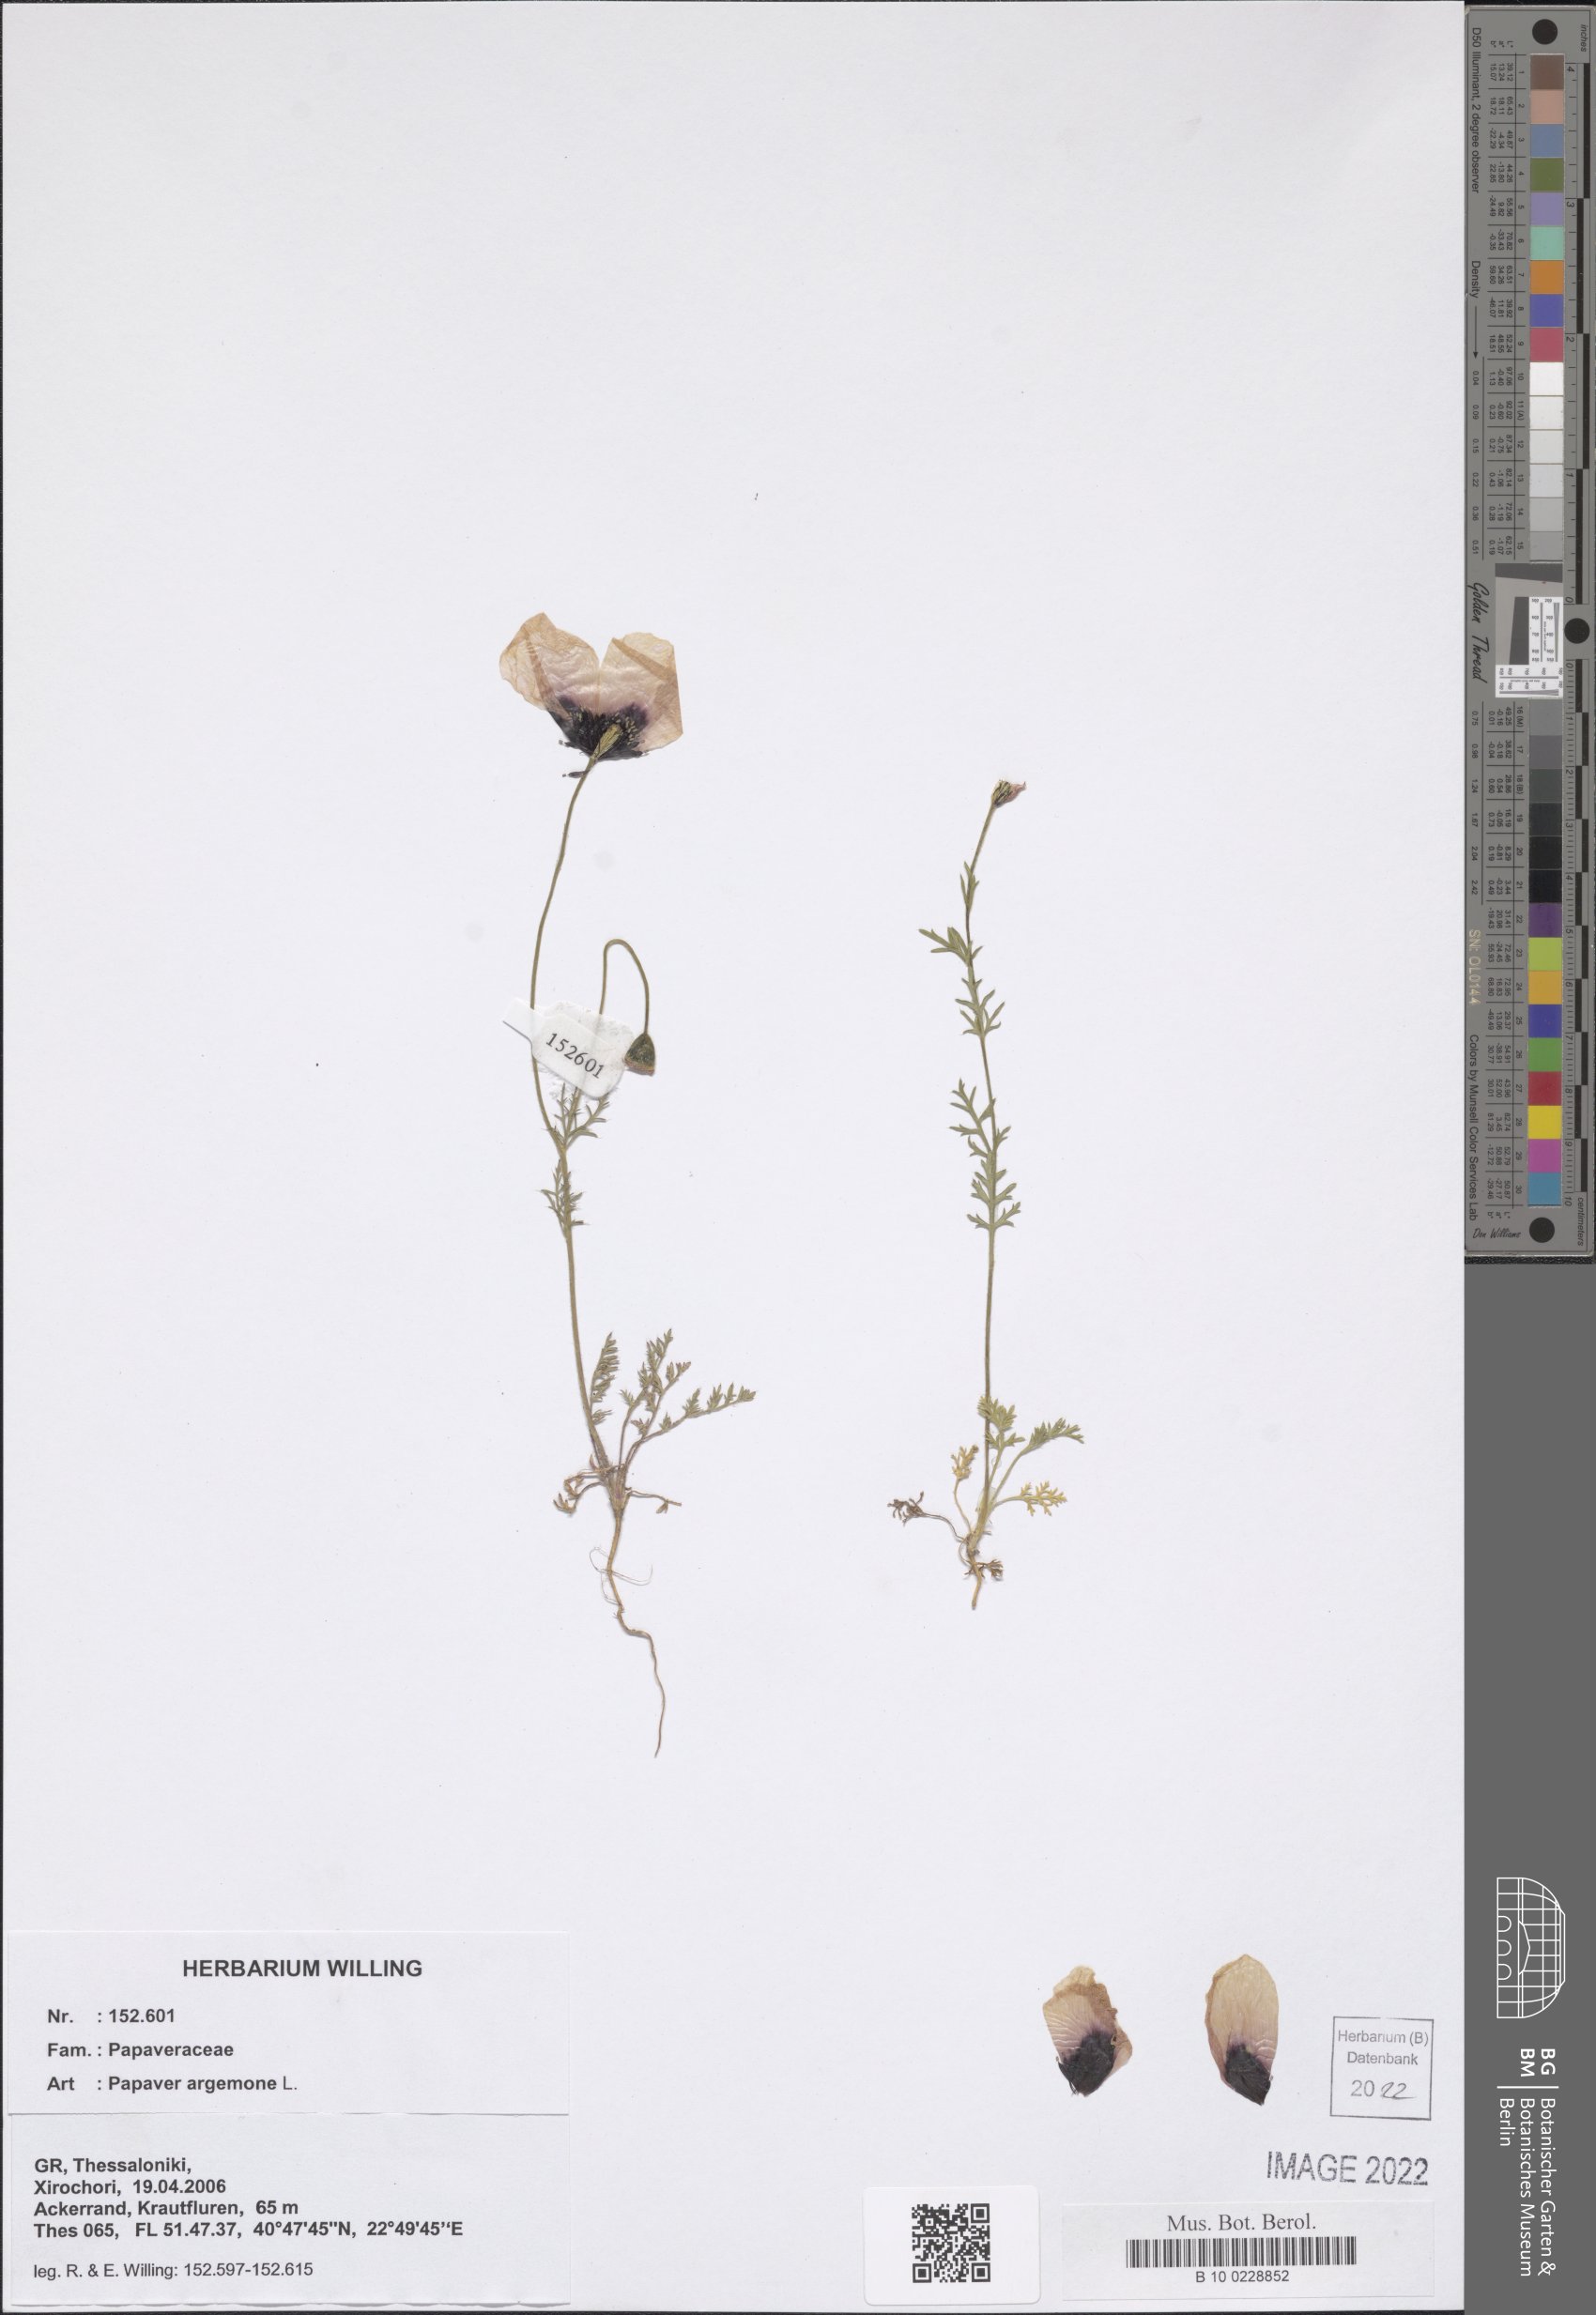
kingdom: Plantae
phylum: Tracheophyta
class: Magnoliopsida
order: Ranunculales
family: Papaveraceae
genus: Roemeria
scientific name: Roemeria argemone
